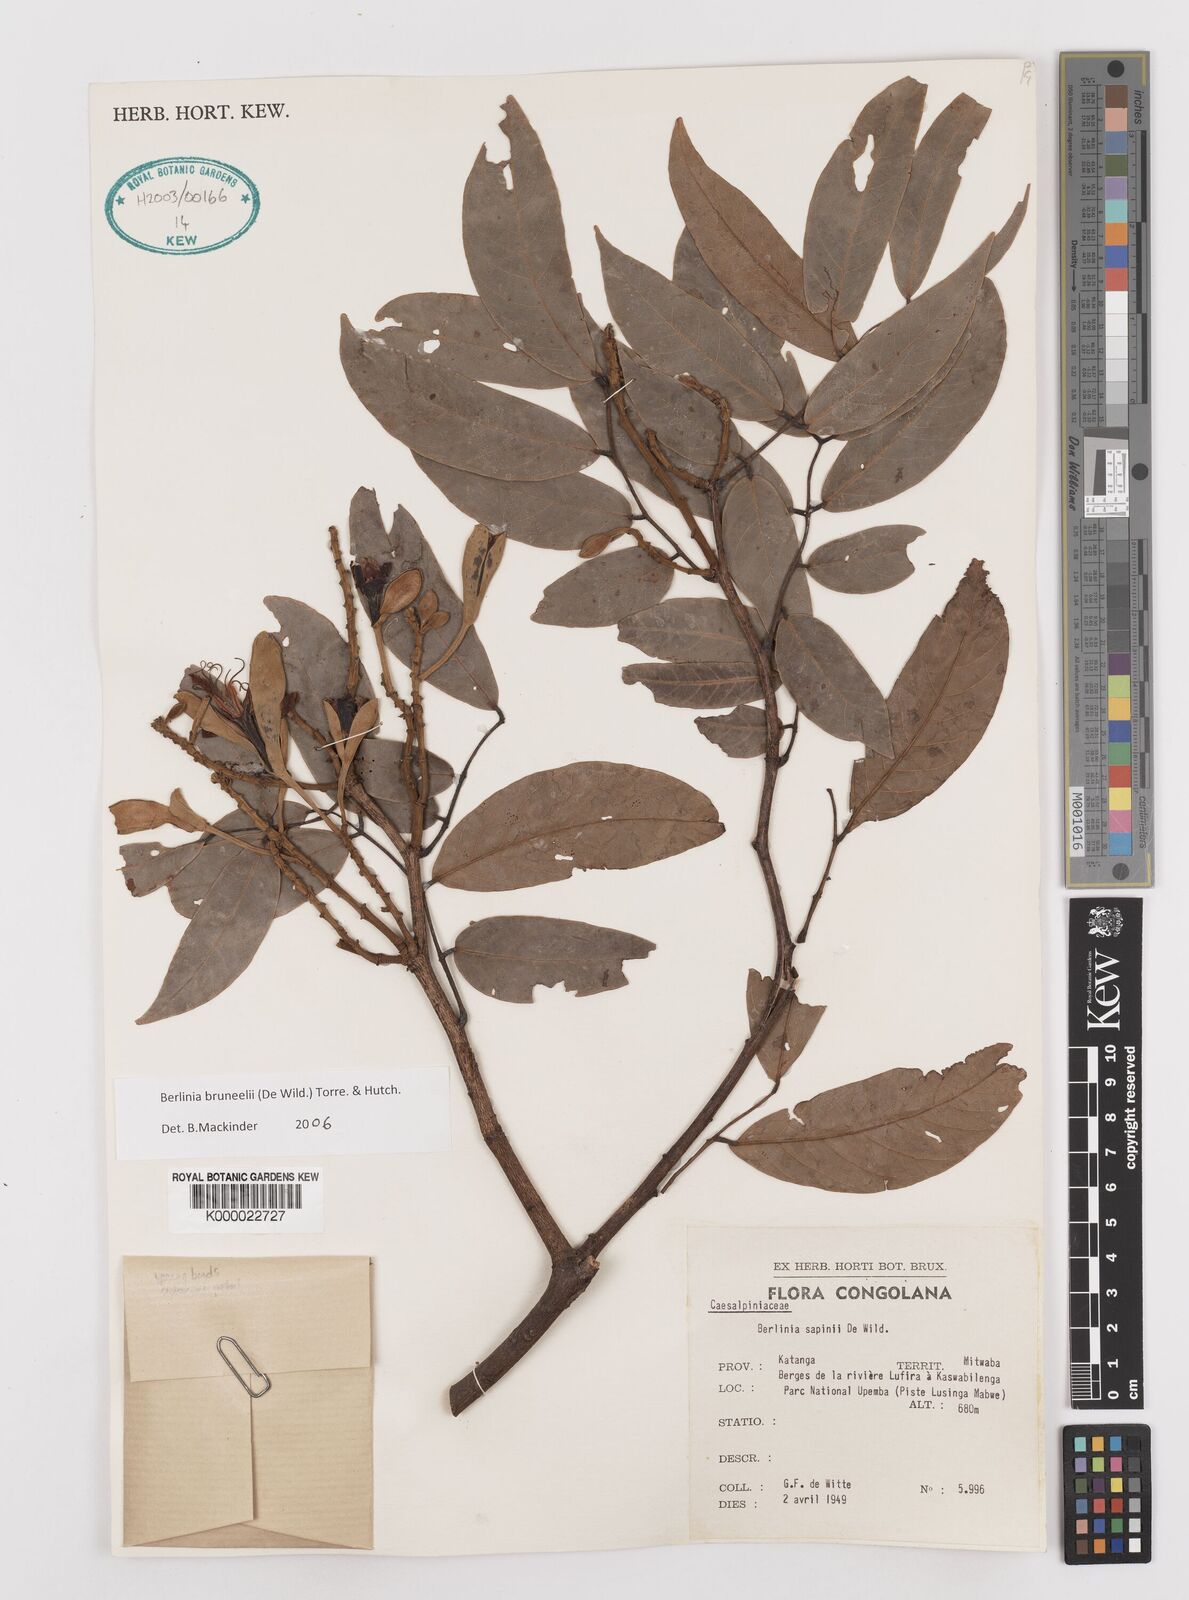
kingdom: Plantae
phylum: Tracheophyta
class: Magnoliopsida
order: Fabales
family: Fabaceae
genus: Berlinia
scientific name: Berlinia sapinii
